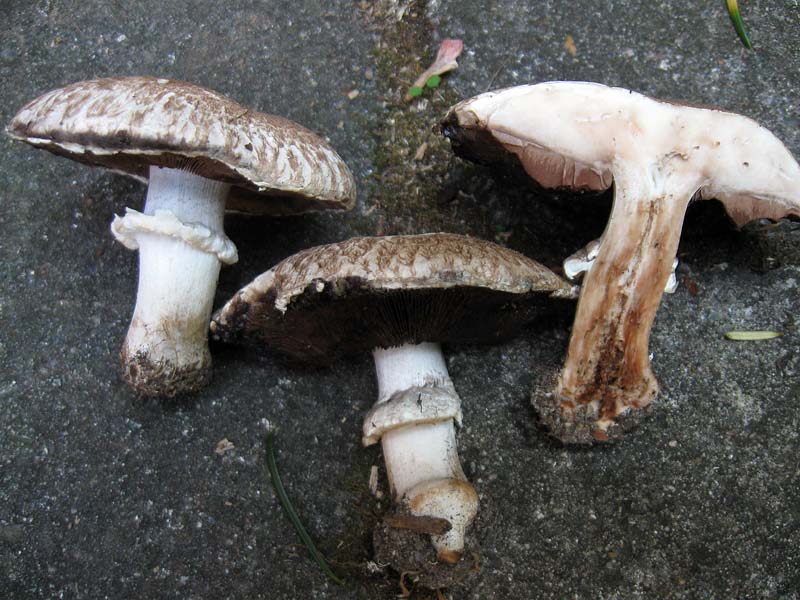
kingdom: Fungi
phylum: Basidiomycota
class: Agaricomycetes
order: Agaricales
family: Agaricaceae
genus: Agaricus
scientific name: Agaricus bisporus
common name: have-champignon
